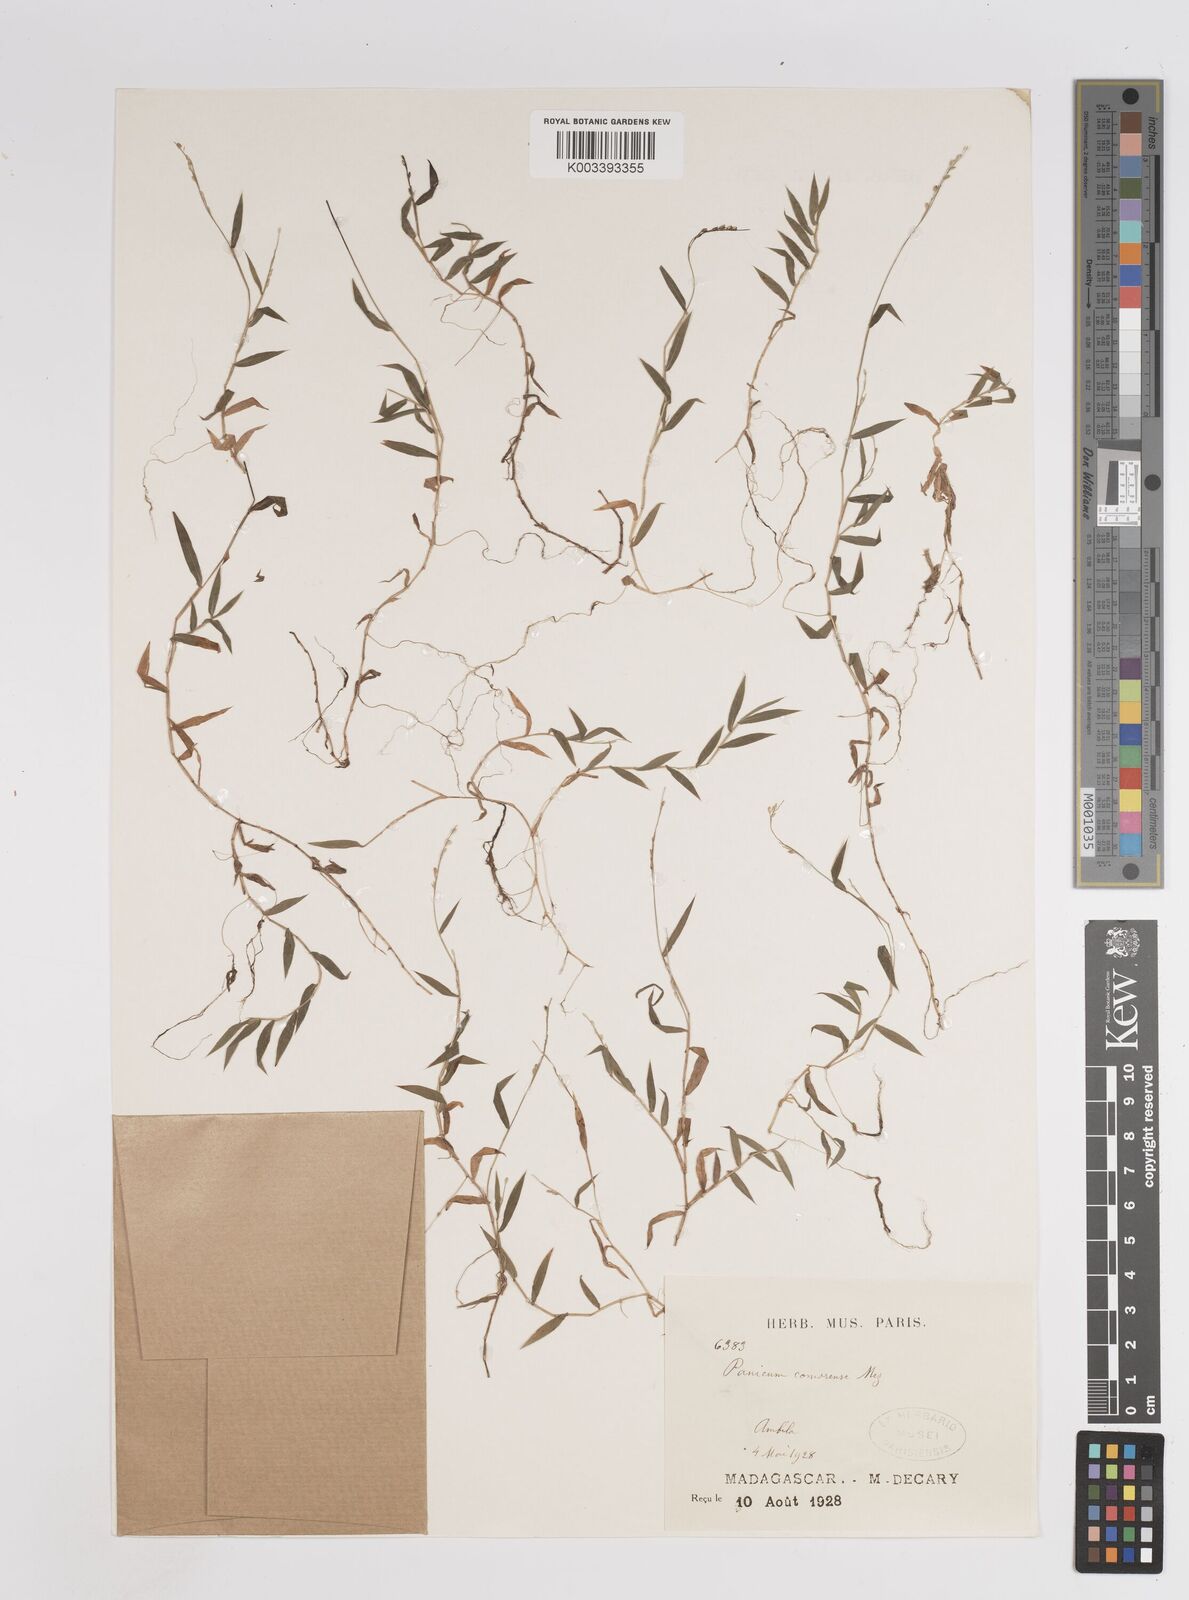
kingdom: Plantae
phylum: Tracheophyta
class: Liliopsida
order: Poales
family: Poaceae
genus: Panicum
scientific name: Panicum
